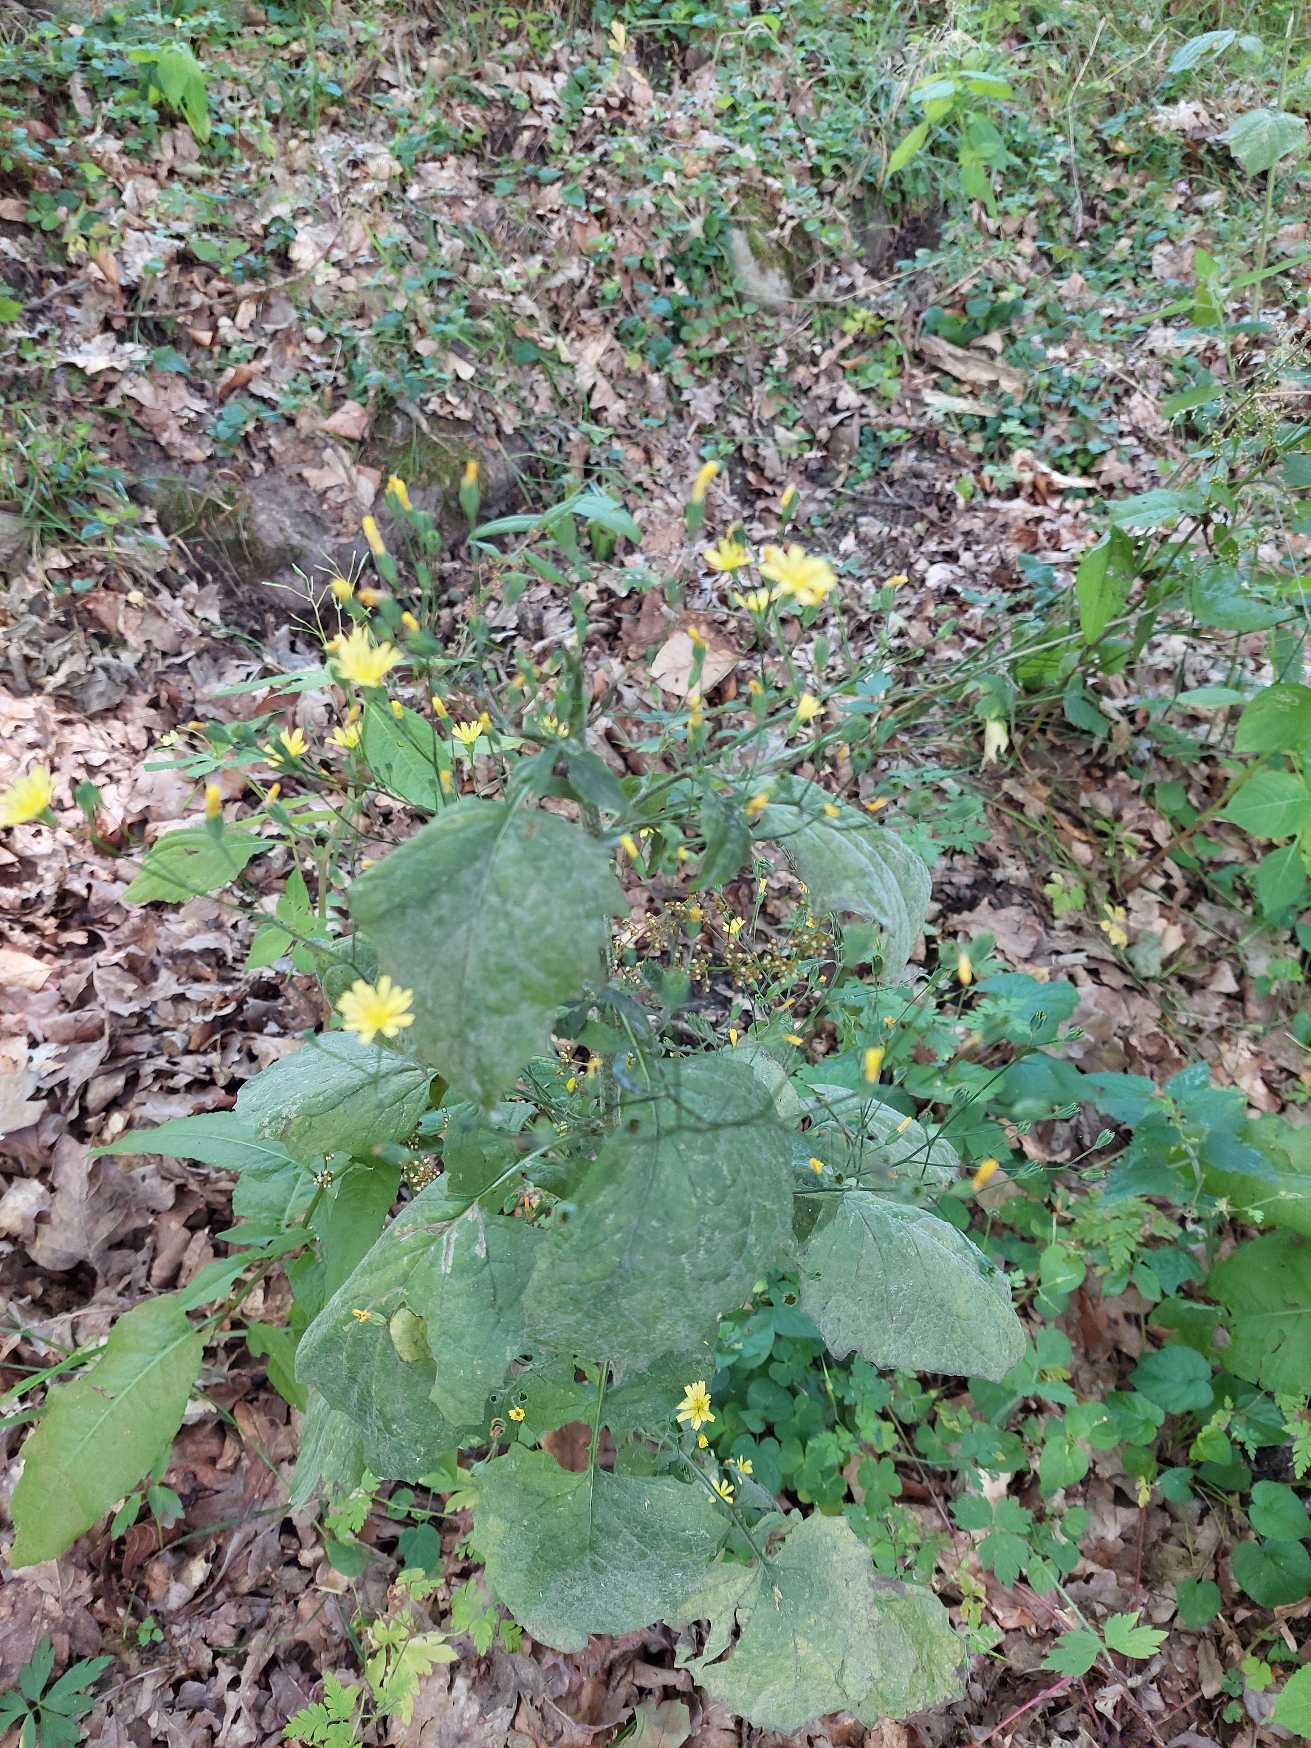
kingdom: Plantae
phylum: Tracheophyta
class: Magnoliopsida
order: Asterales
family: Asteraceae
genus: Lapsana
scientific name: Lapsana communis
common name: Haremad
